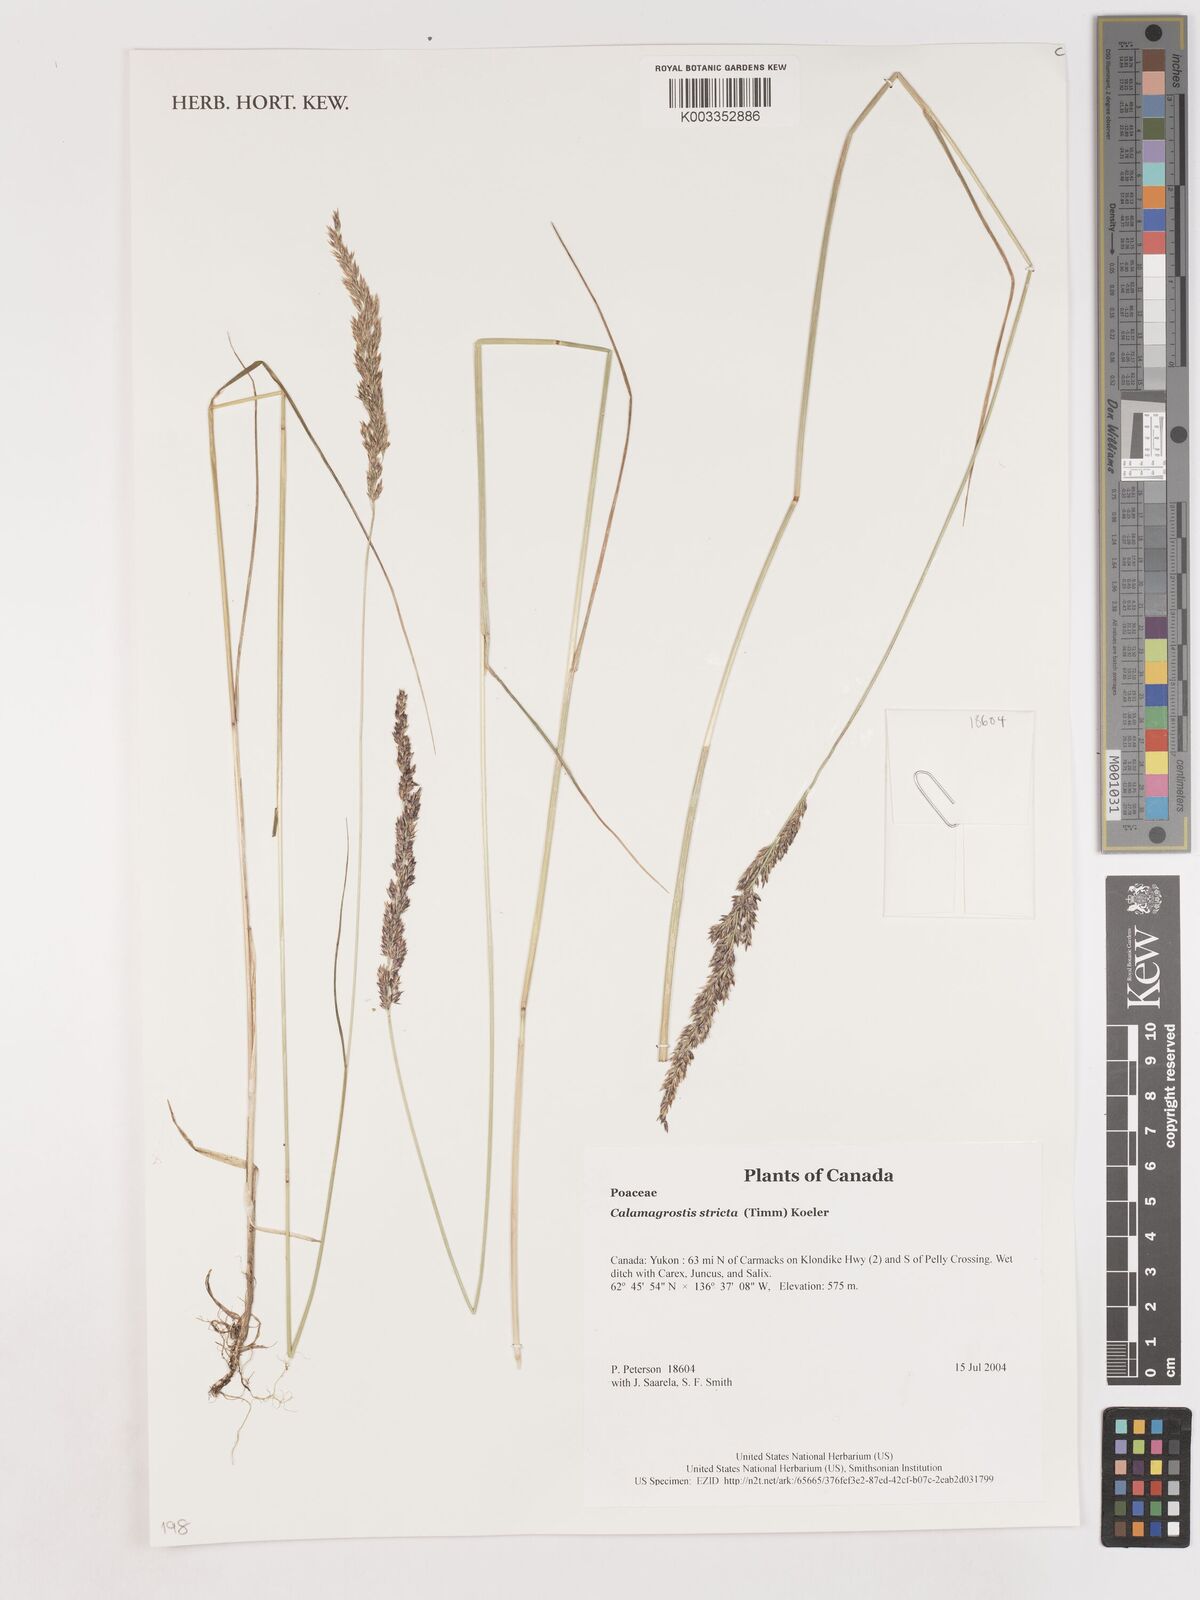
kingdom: Plantae
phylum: Tracheophyta
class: Liliopsida
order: Poales
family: Poaceae
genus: Calamagrostis
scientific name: Calamagrostis stricta
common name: Narrow small-reed
